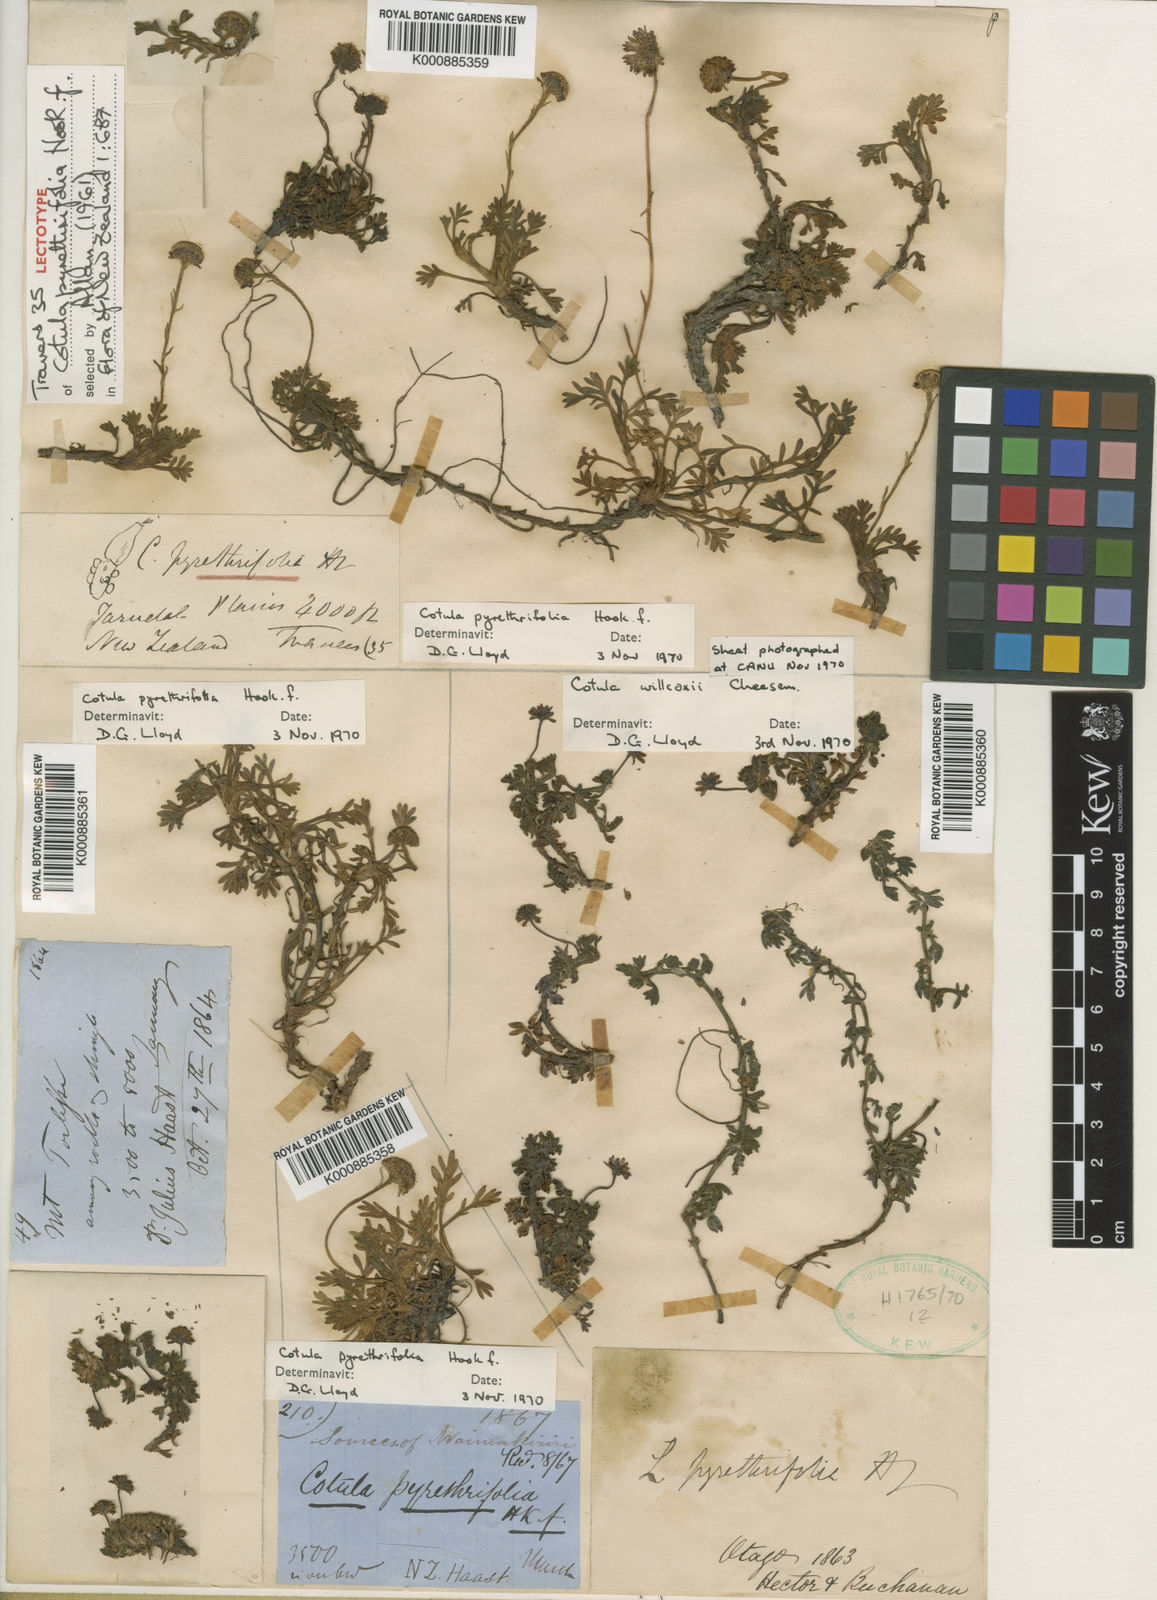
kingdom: Plantae
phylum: Tracheophyta
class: Magnoliopsida
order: Asterales
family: Asteraceae
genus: Leptinella
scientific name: Leptinella
